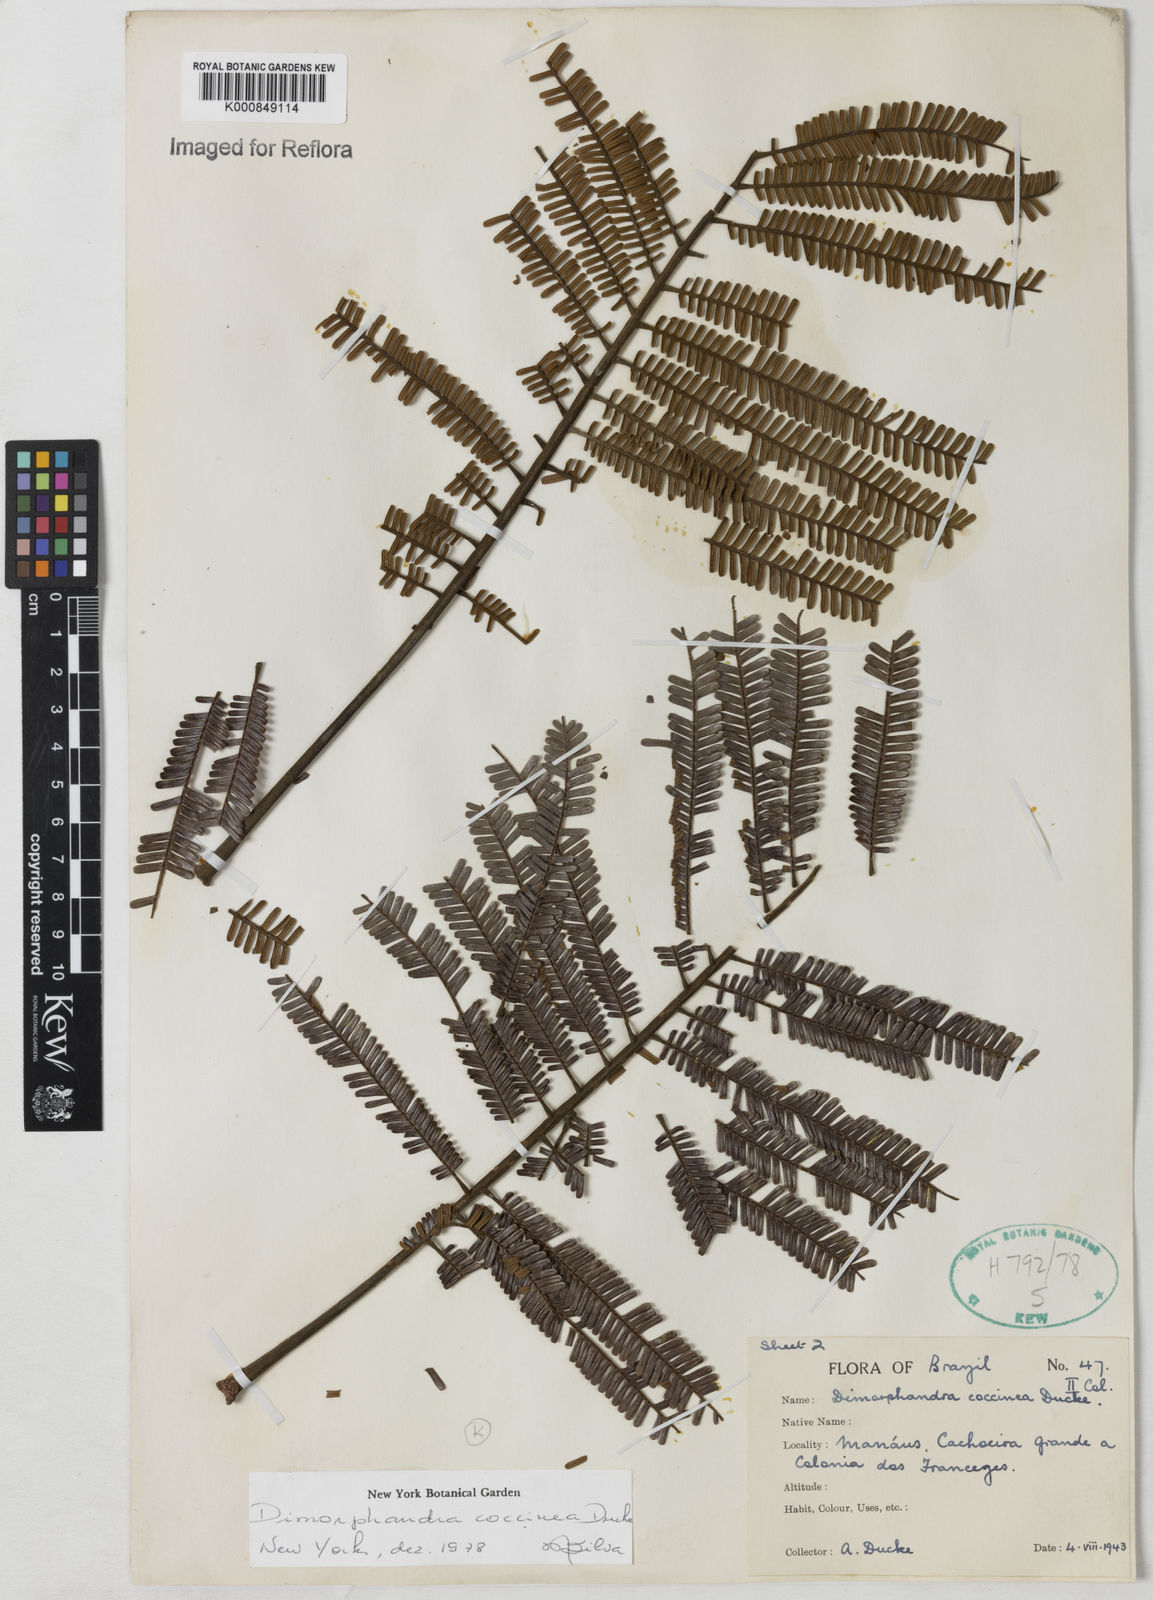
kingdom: Plantae
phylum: Tracheophyta
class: Magnoliopsida
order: Fabales
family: Fabaceae
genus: Dimorphandra
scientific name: Dimorphandra coccinea
